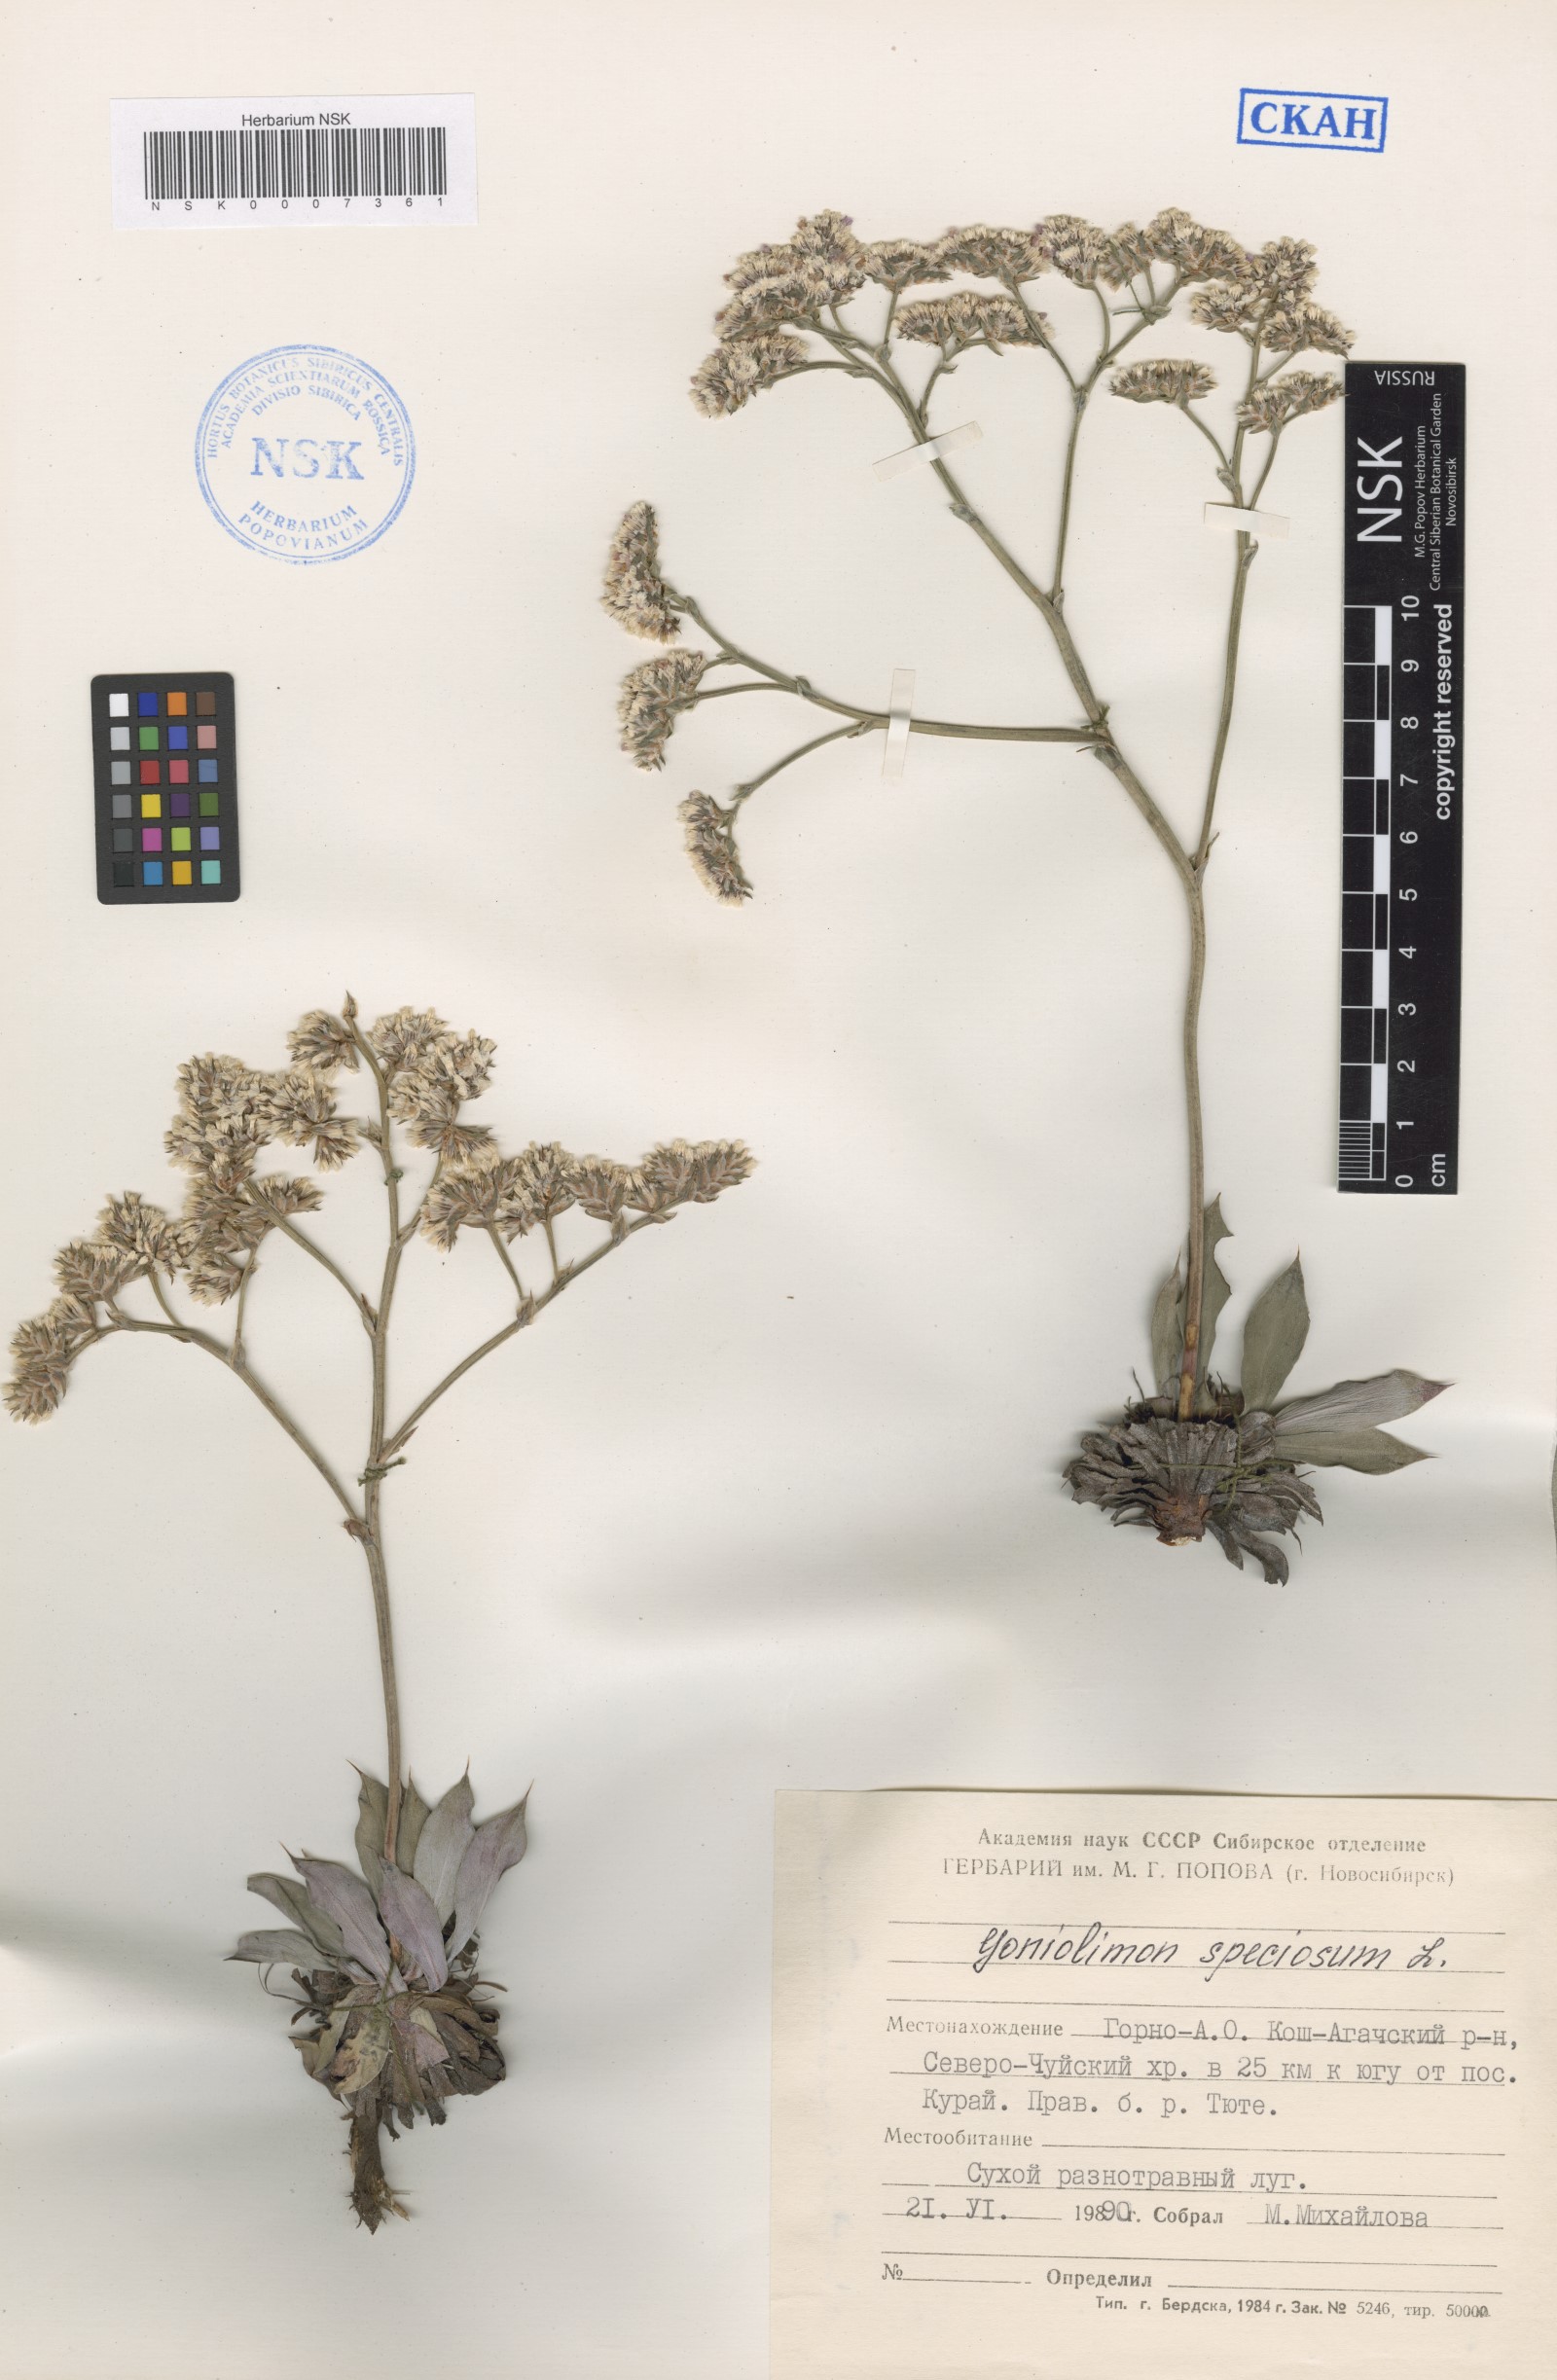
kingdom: Plantae
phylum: Tracheophyta
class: Magnoliopsida
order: Caryophyllales
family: Plumbaginaceae
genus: Goniolimon
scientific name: Goniolimon speciosum
